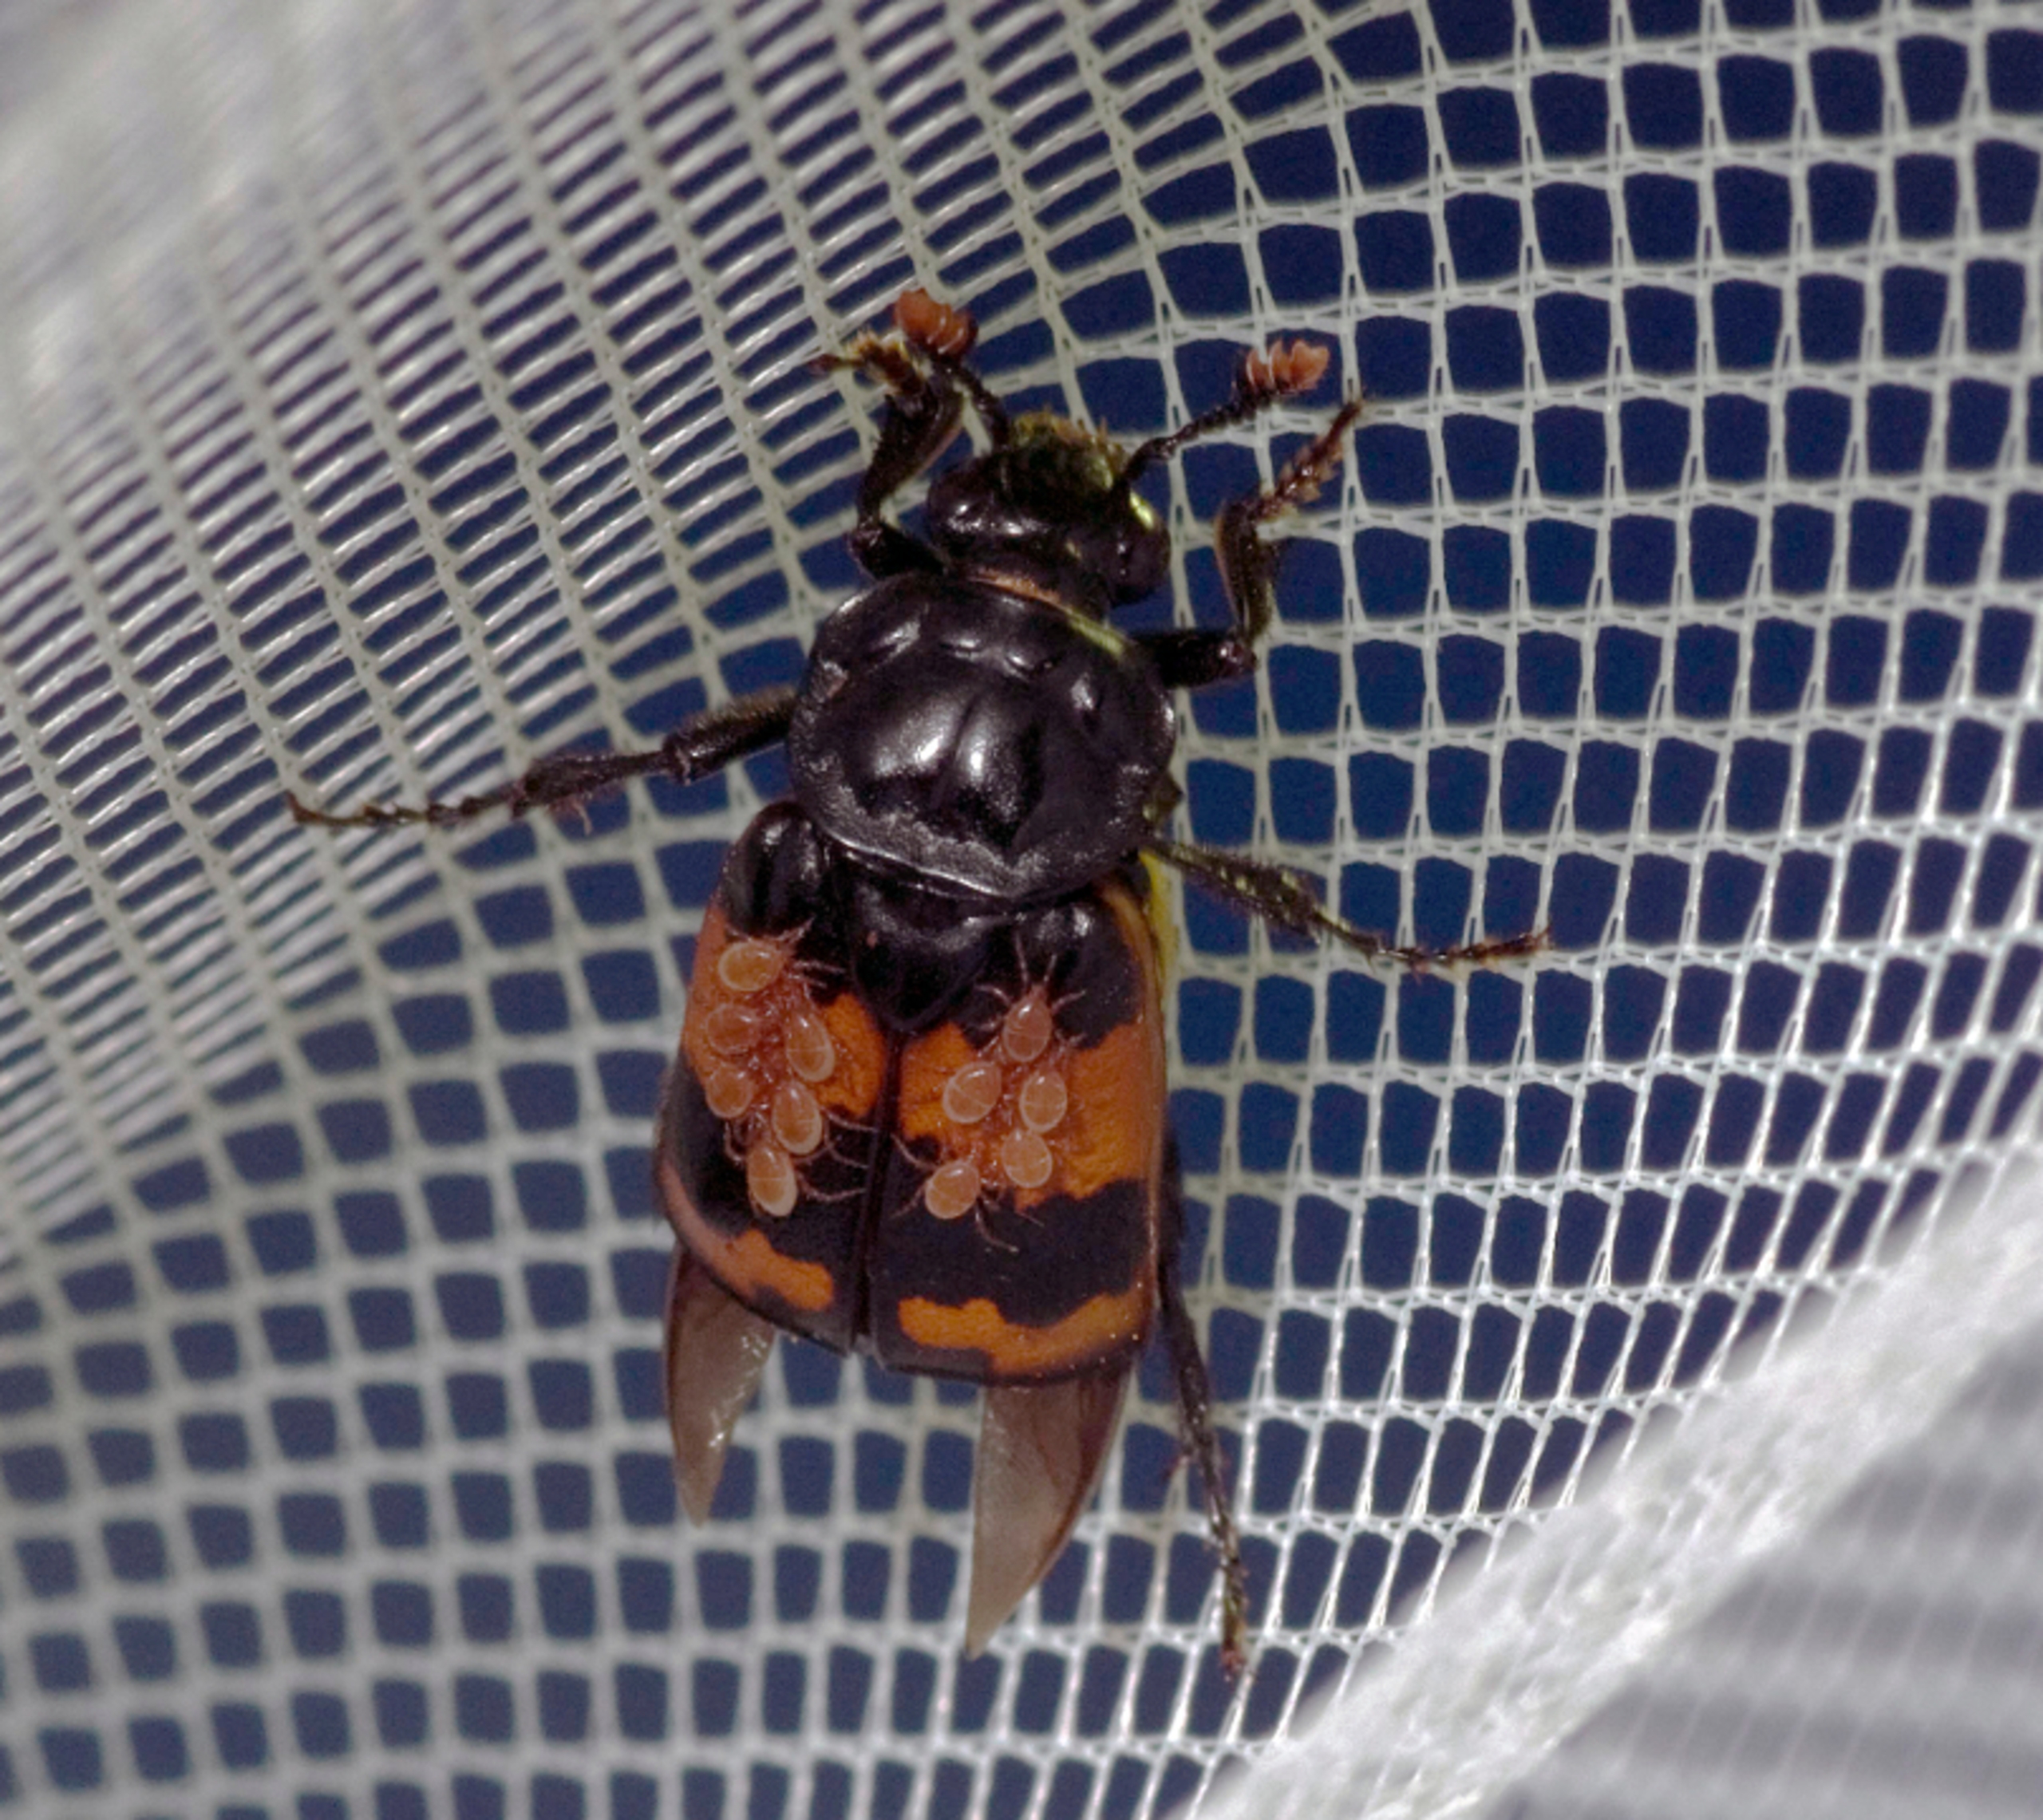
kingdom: Animalia
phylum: Arthropoda
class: Insecta
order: Coleoptera
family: Staphylinidae
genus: Nicrophorus
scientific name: Nicrophorus investigator
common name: Skovådselgraver
